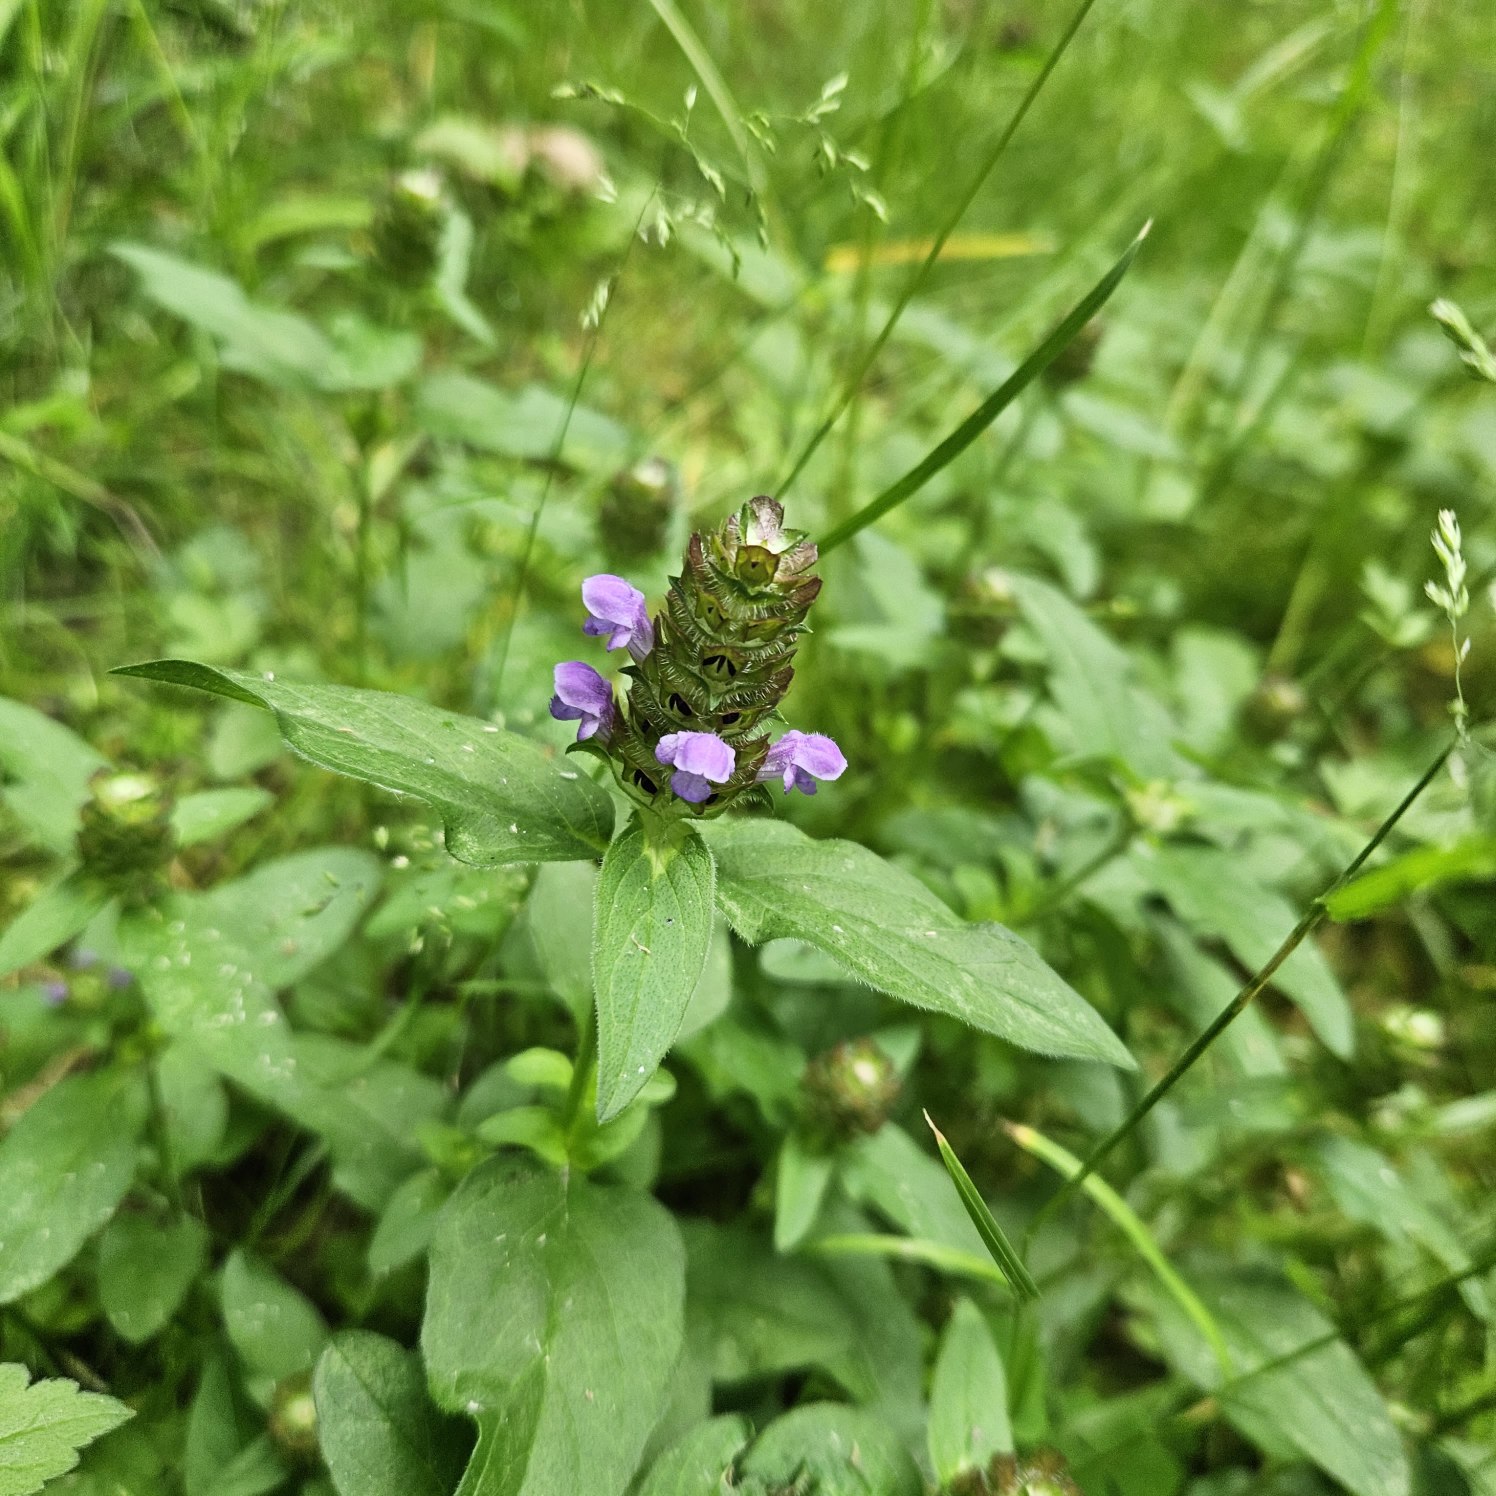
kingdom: Plantae
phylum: Tracheophyta
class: Magnoliopsida
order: Lamiales
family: Lamiaceae
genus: Prunella
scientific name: Prunella vulgaris
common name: Almindelig brunelle
